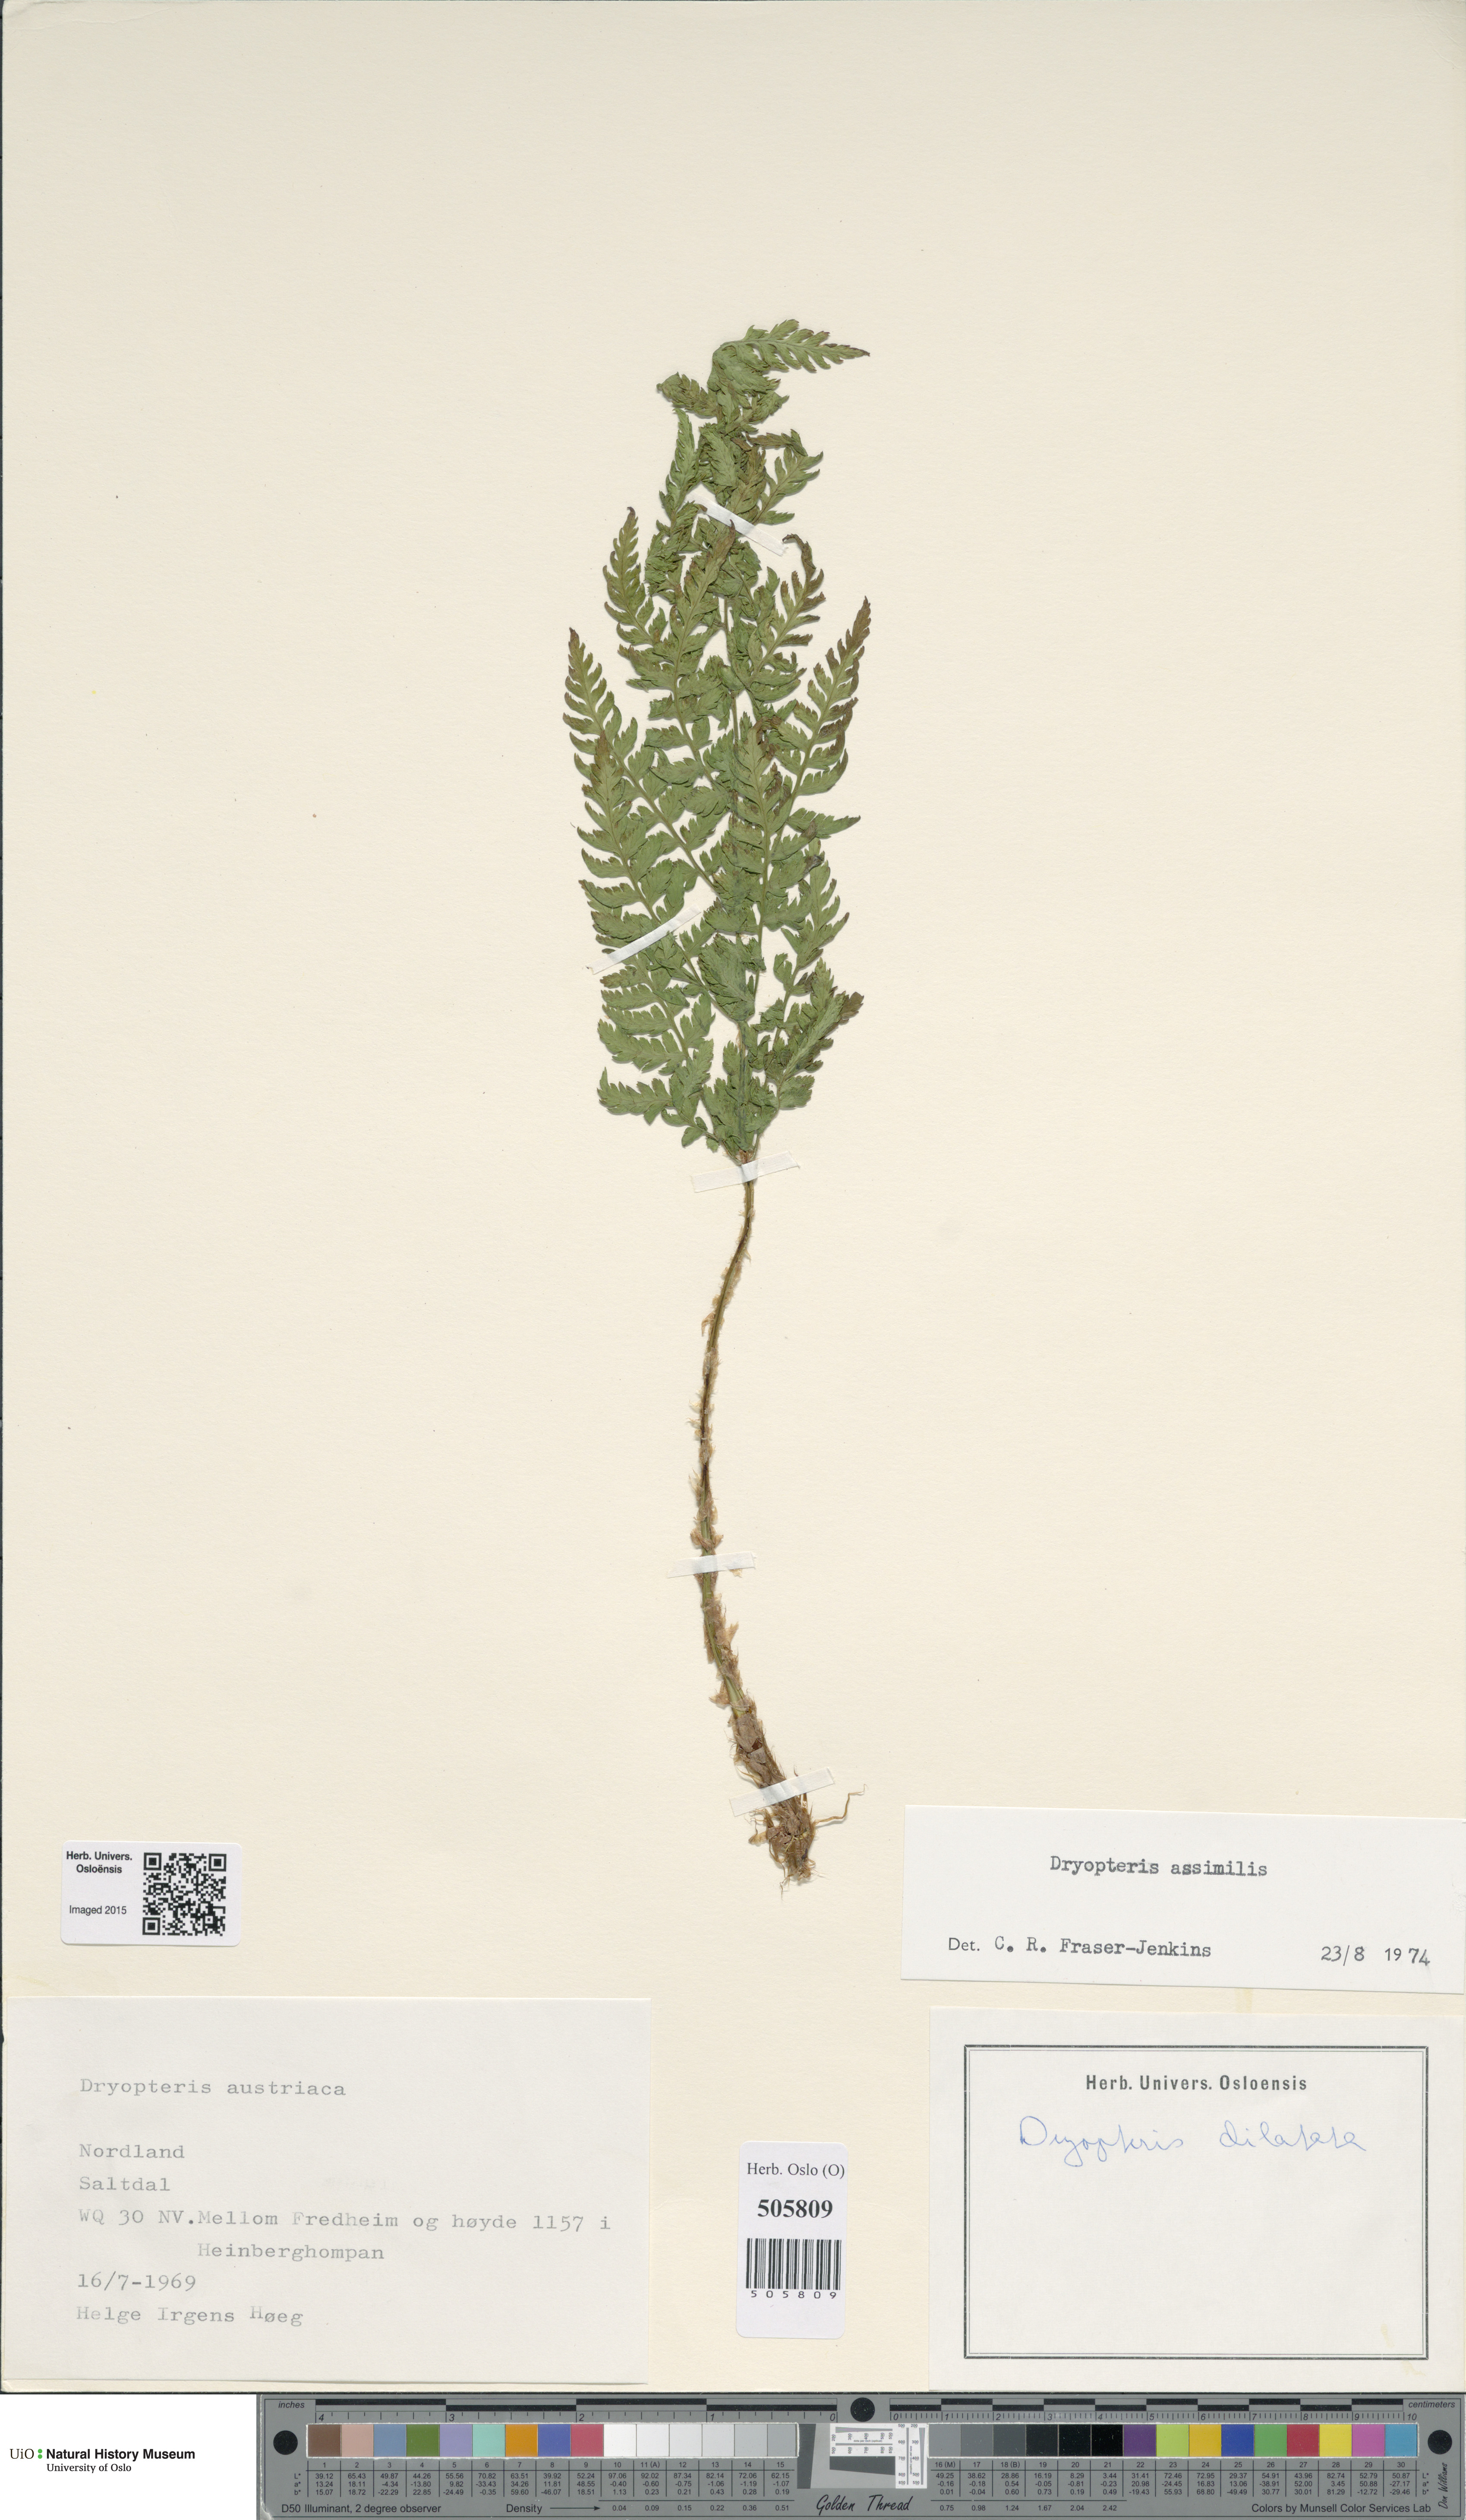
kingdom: Plantae
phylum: Tracheophyta
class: Polypodiopsida
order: Polypodiales
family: Dryopteridaceae
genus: Dryopteris
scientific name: Dryopteris expansa
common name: Northern buckler fern
